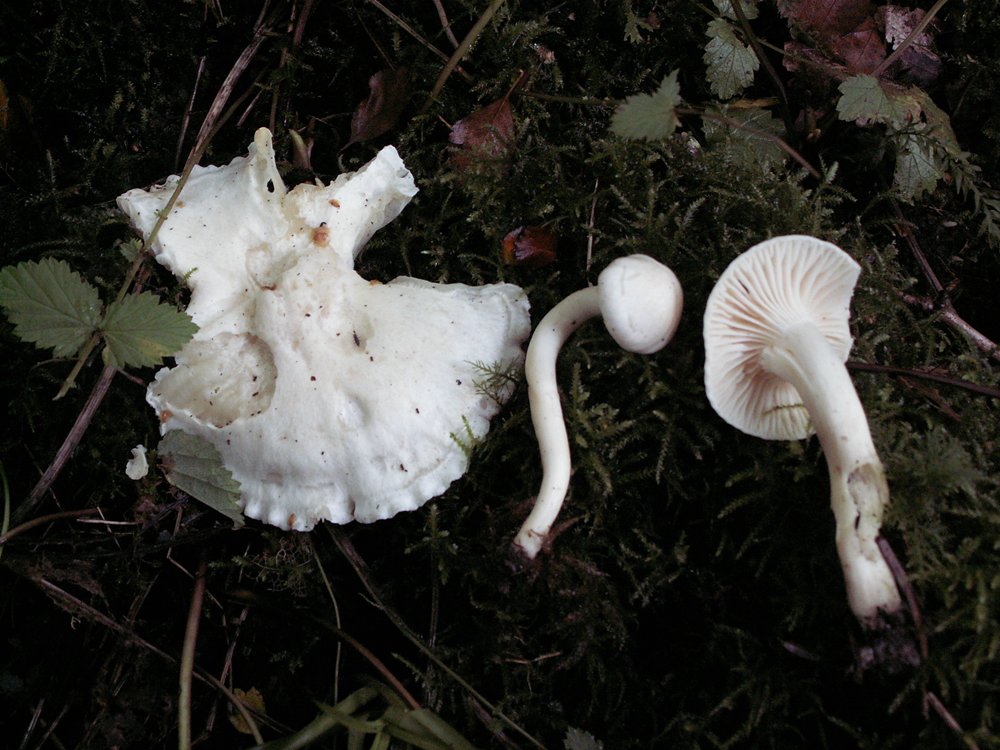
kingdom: Fungi
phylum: Basidiomycota
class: Agaricomycetes
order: Agaricales
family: Hygrophoraceae
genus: Cuphophyllus
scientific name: Cuphophyllus pratensis
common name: bleg vokshat
